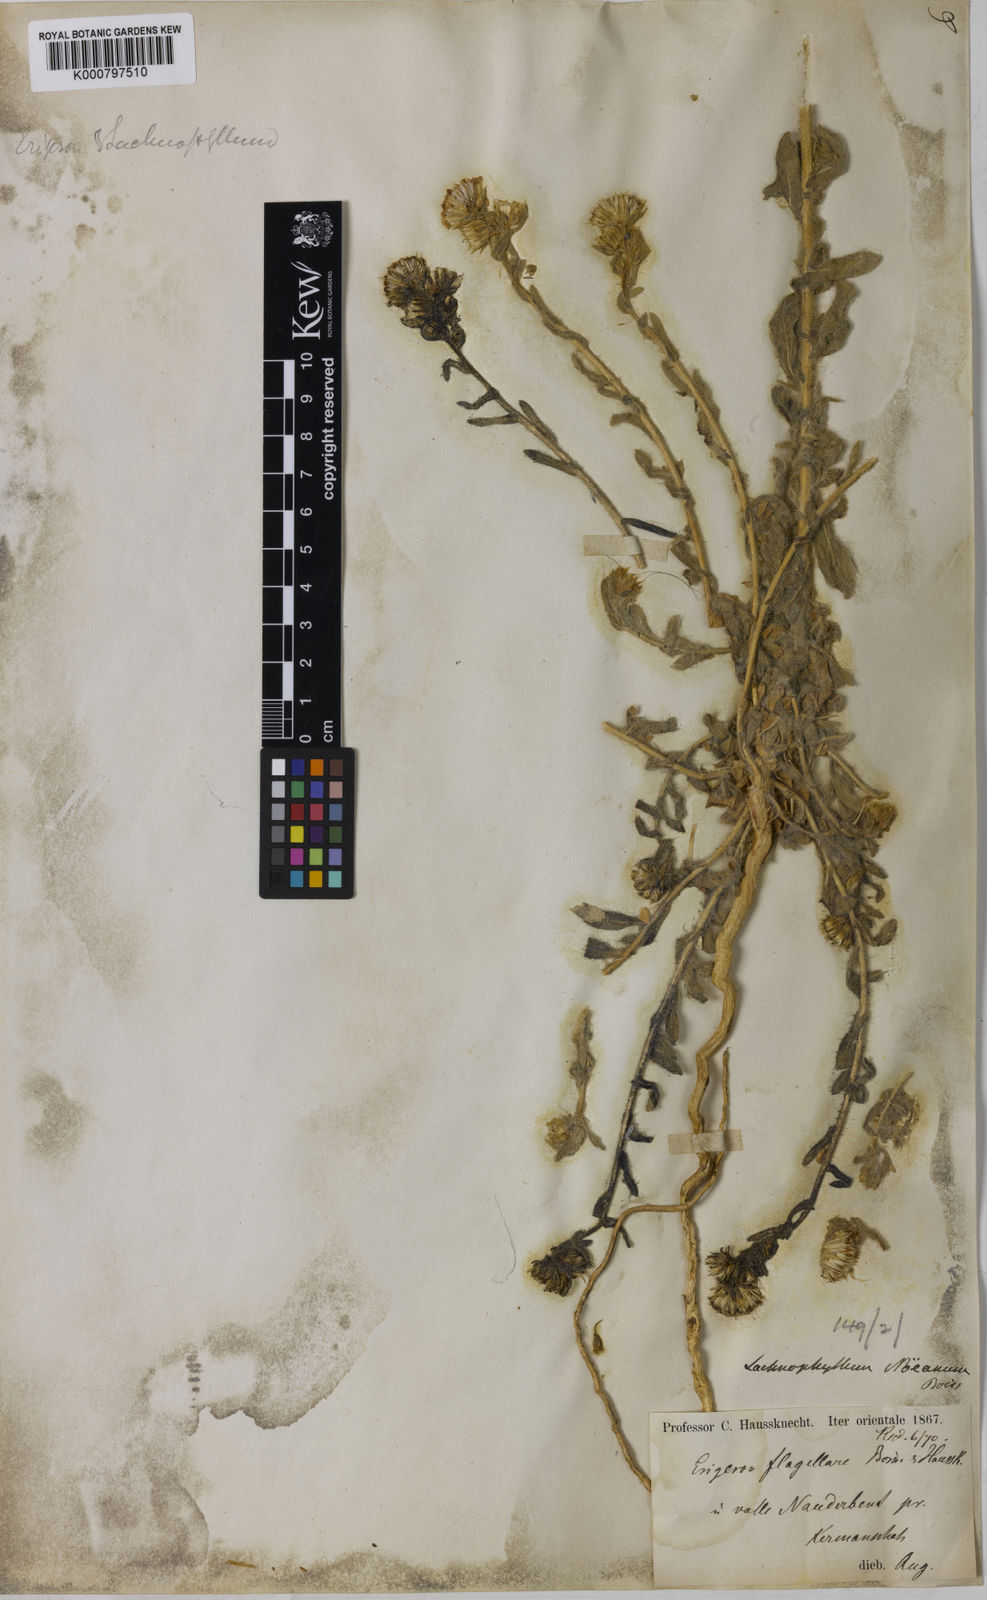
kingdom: Plantae
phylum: Tracheophyta
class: Magnoliopsida
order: Asterales
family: Asteraceae
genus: Lachnophyllum
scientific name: Lachnophyllum noeanum
